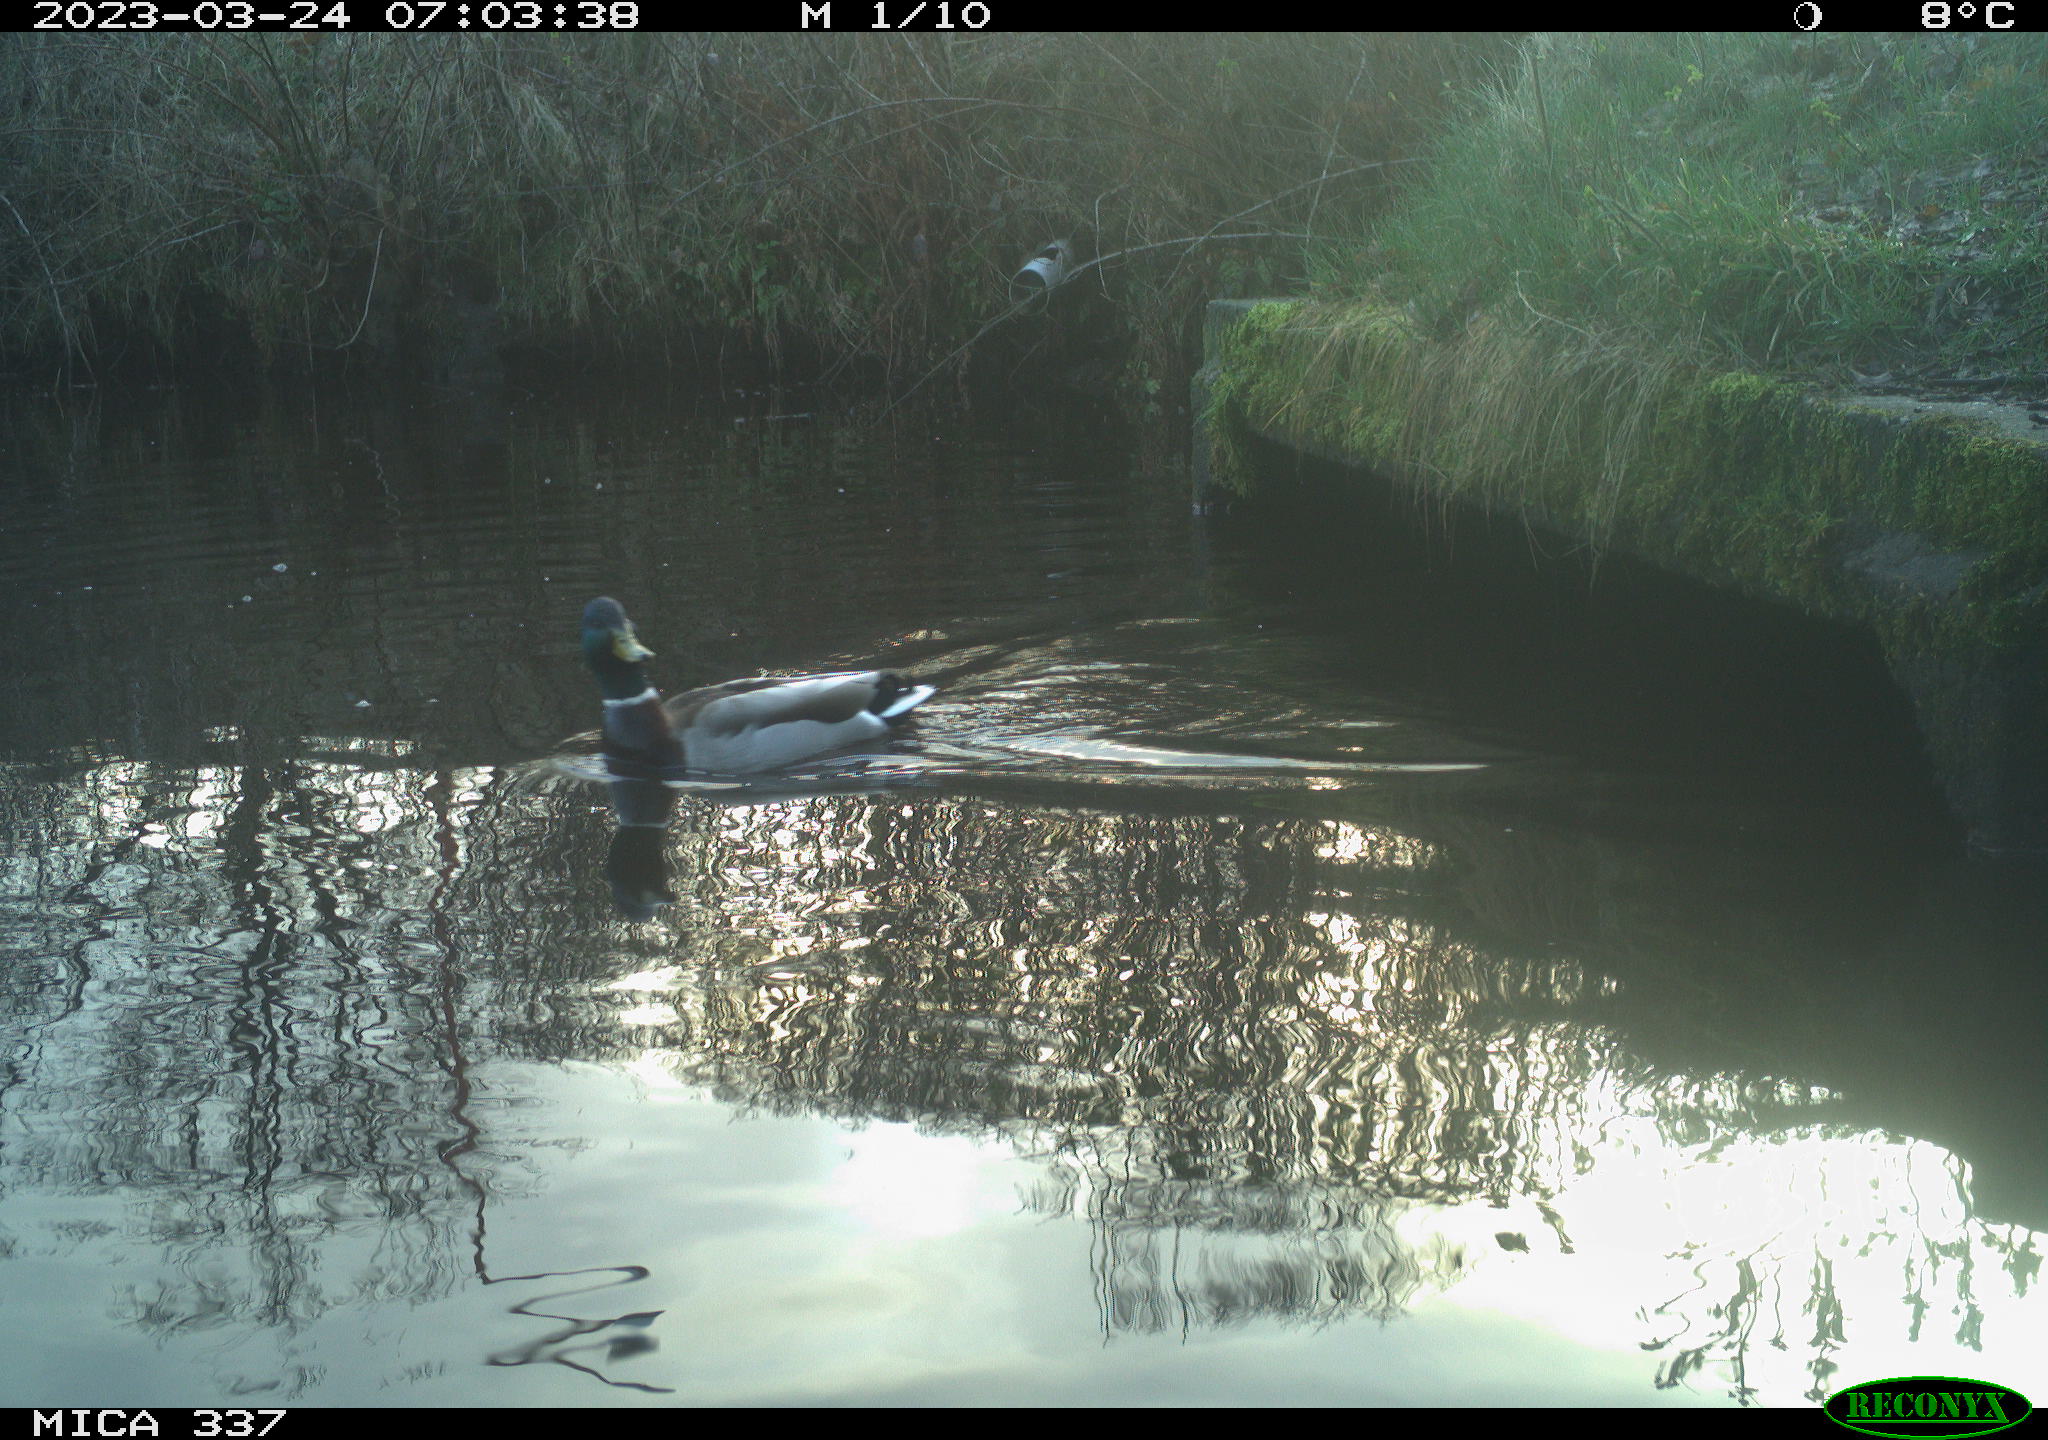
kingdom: Animalia
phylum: Chordata
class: Aves
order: Anseriformes
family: Anatidae
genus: Anas
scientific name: Anas platyrhynchos
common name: Mallard
